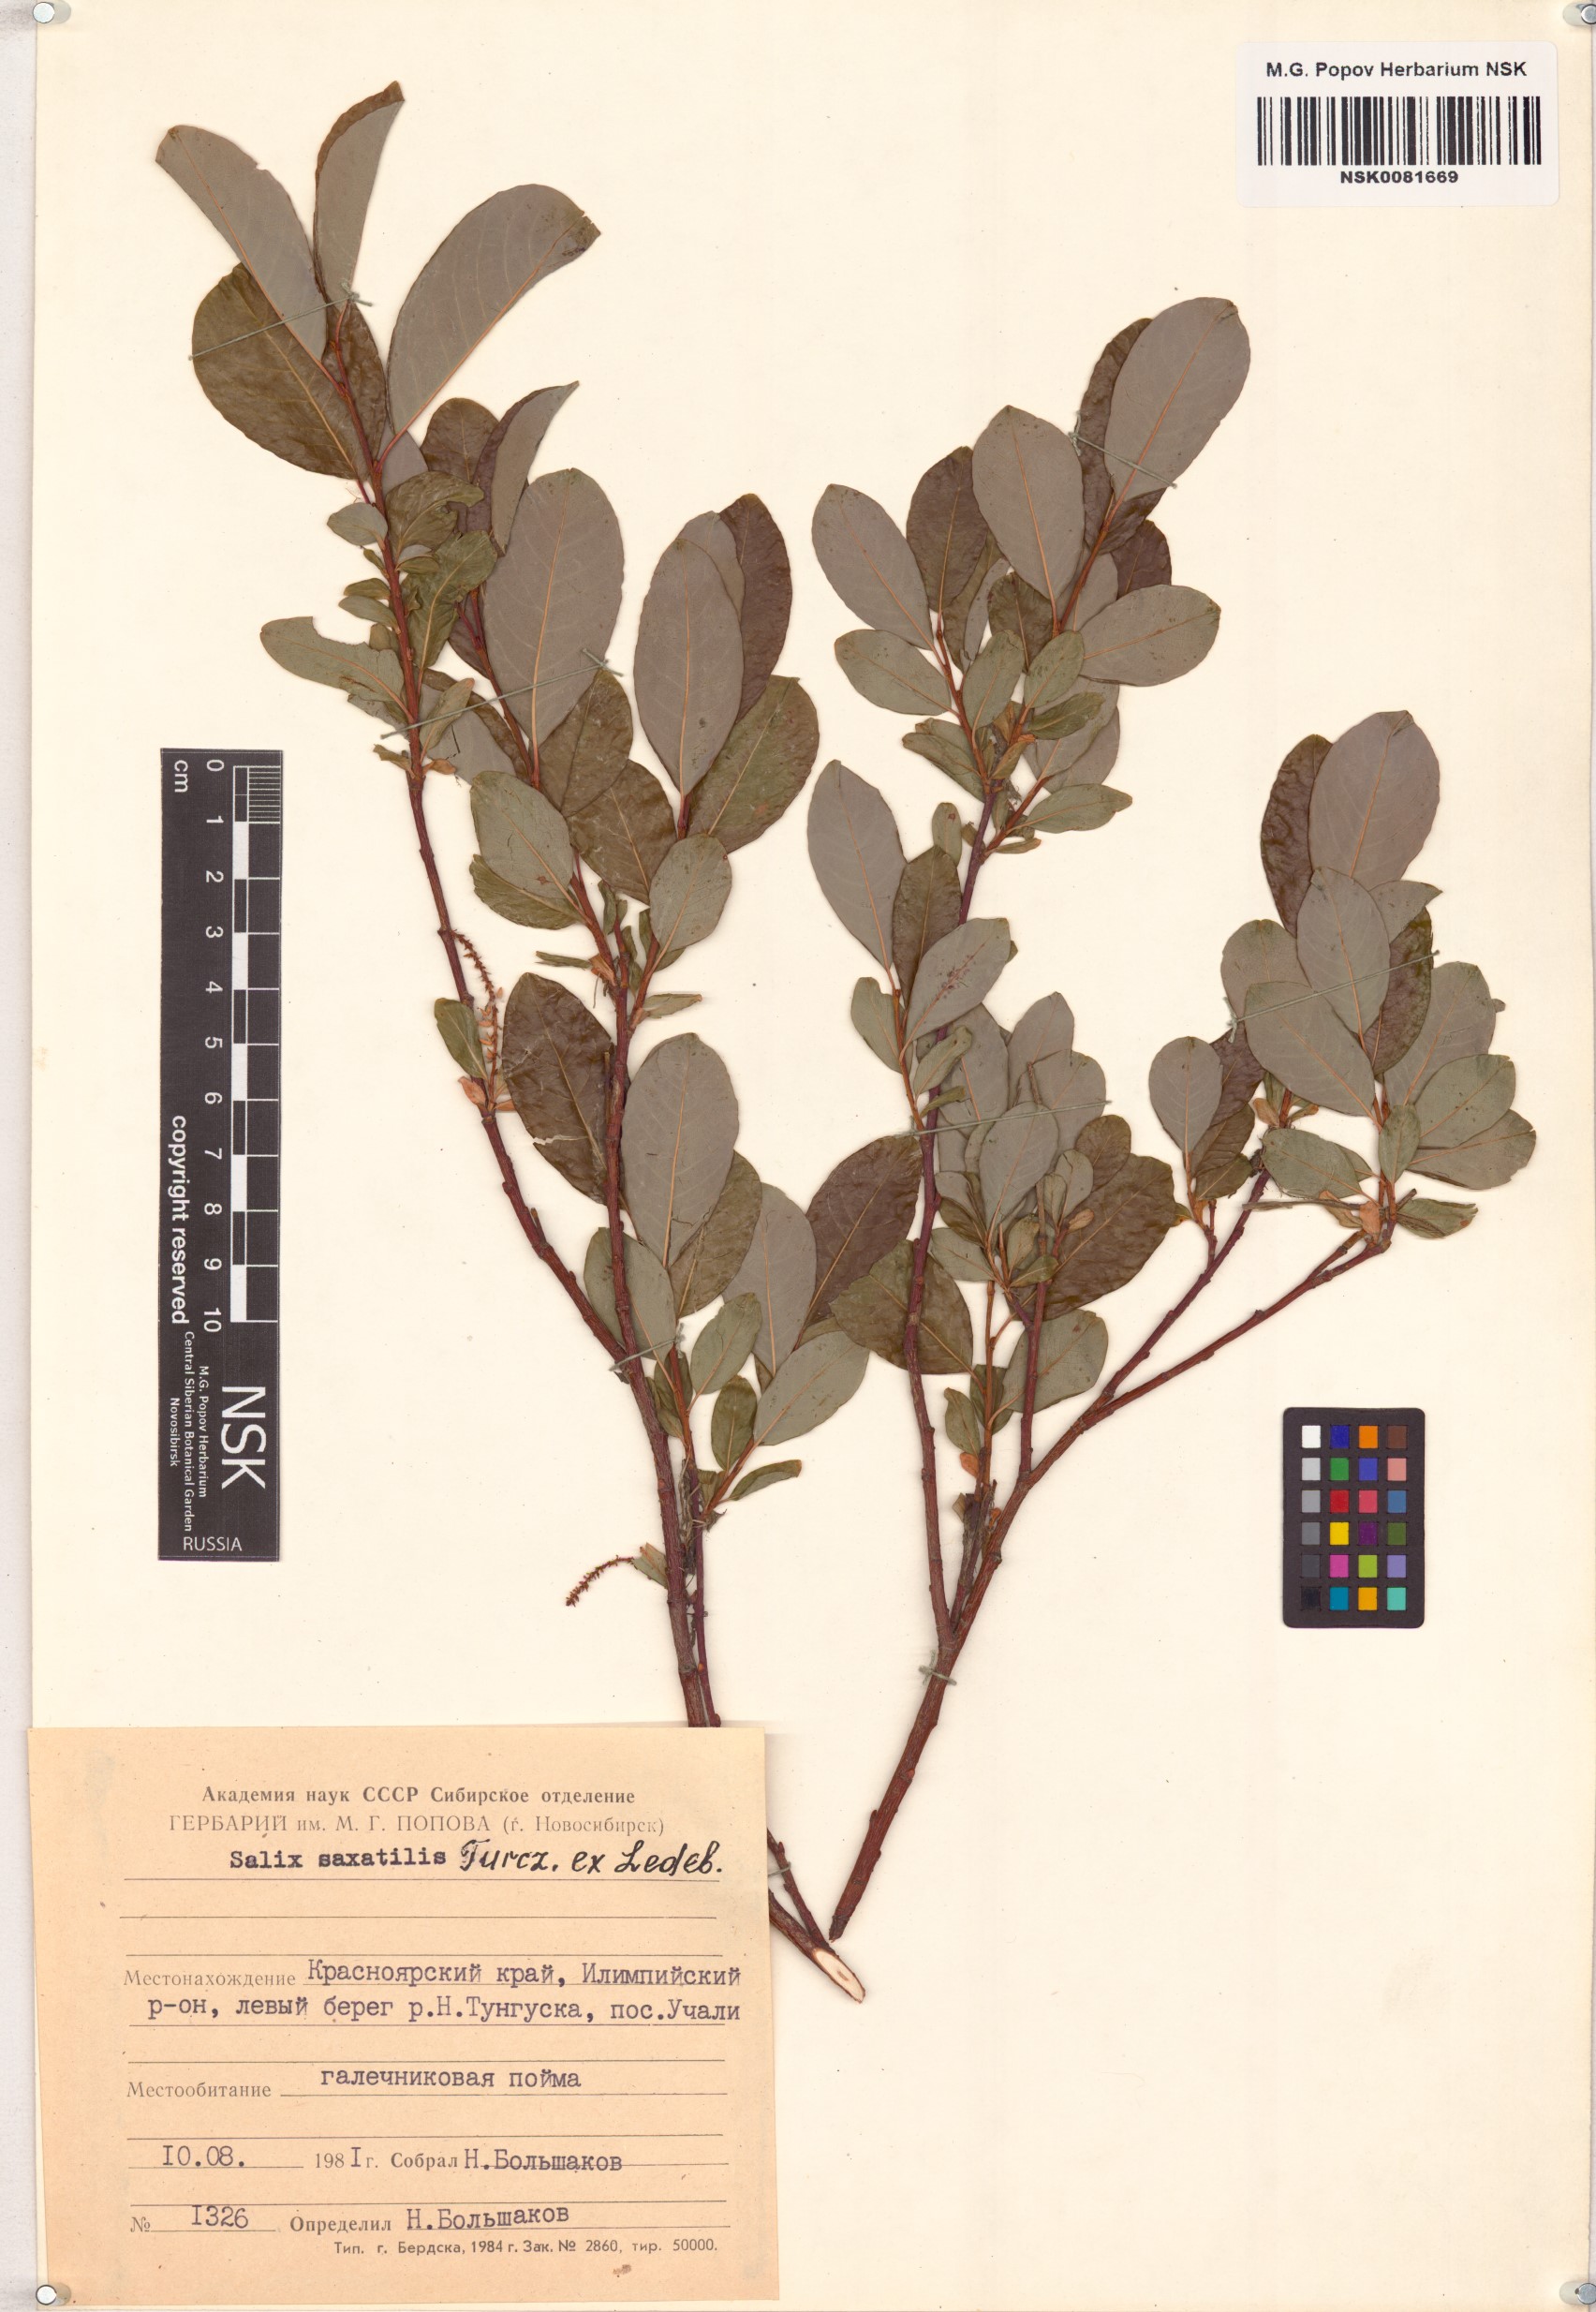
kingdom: Plantae
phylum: Tracheophyta
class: Magnoliopsida
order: Malpighiales
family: Salicaceae
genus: Salix
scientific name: Salix saxatilis
